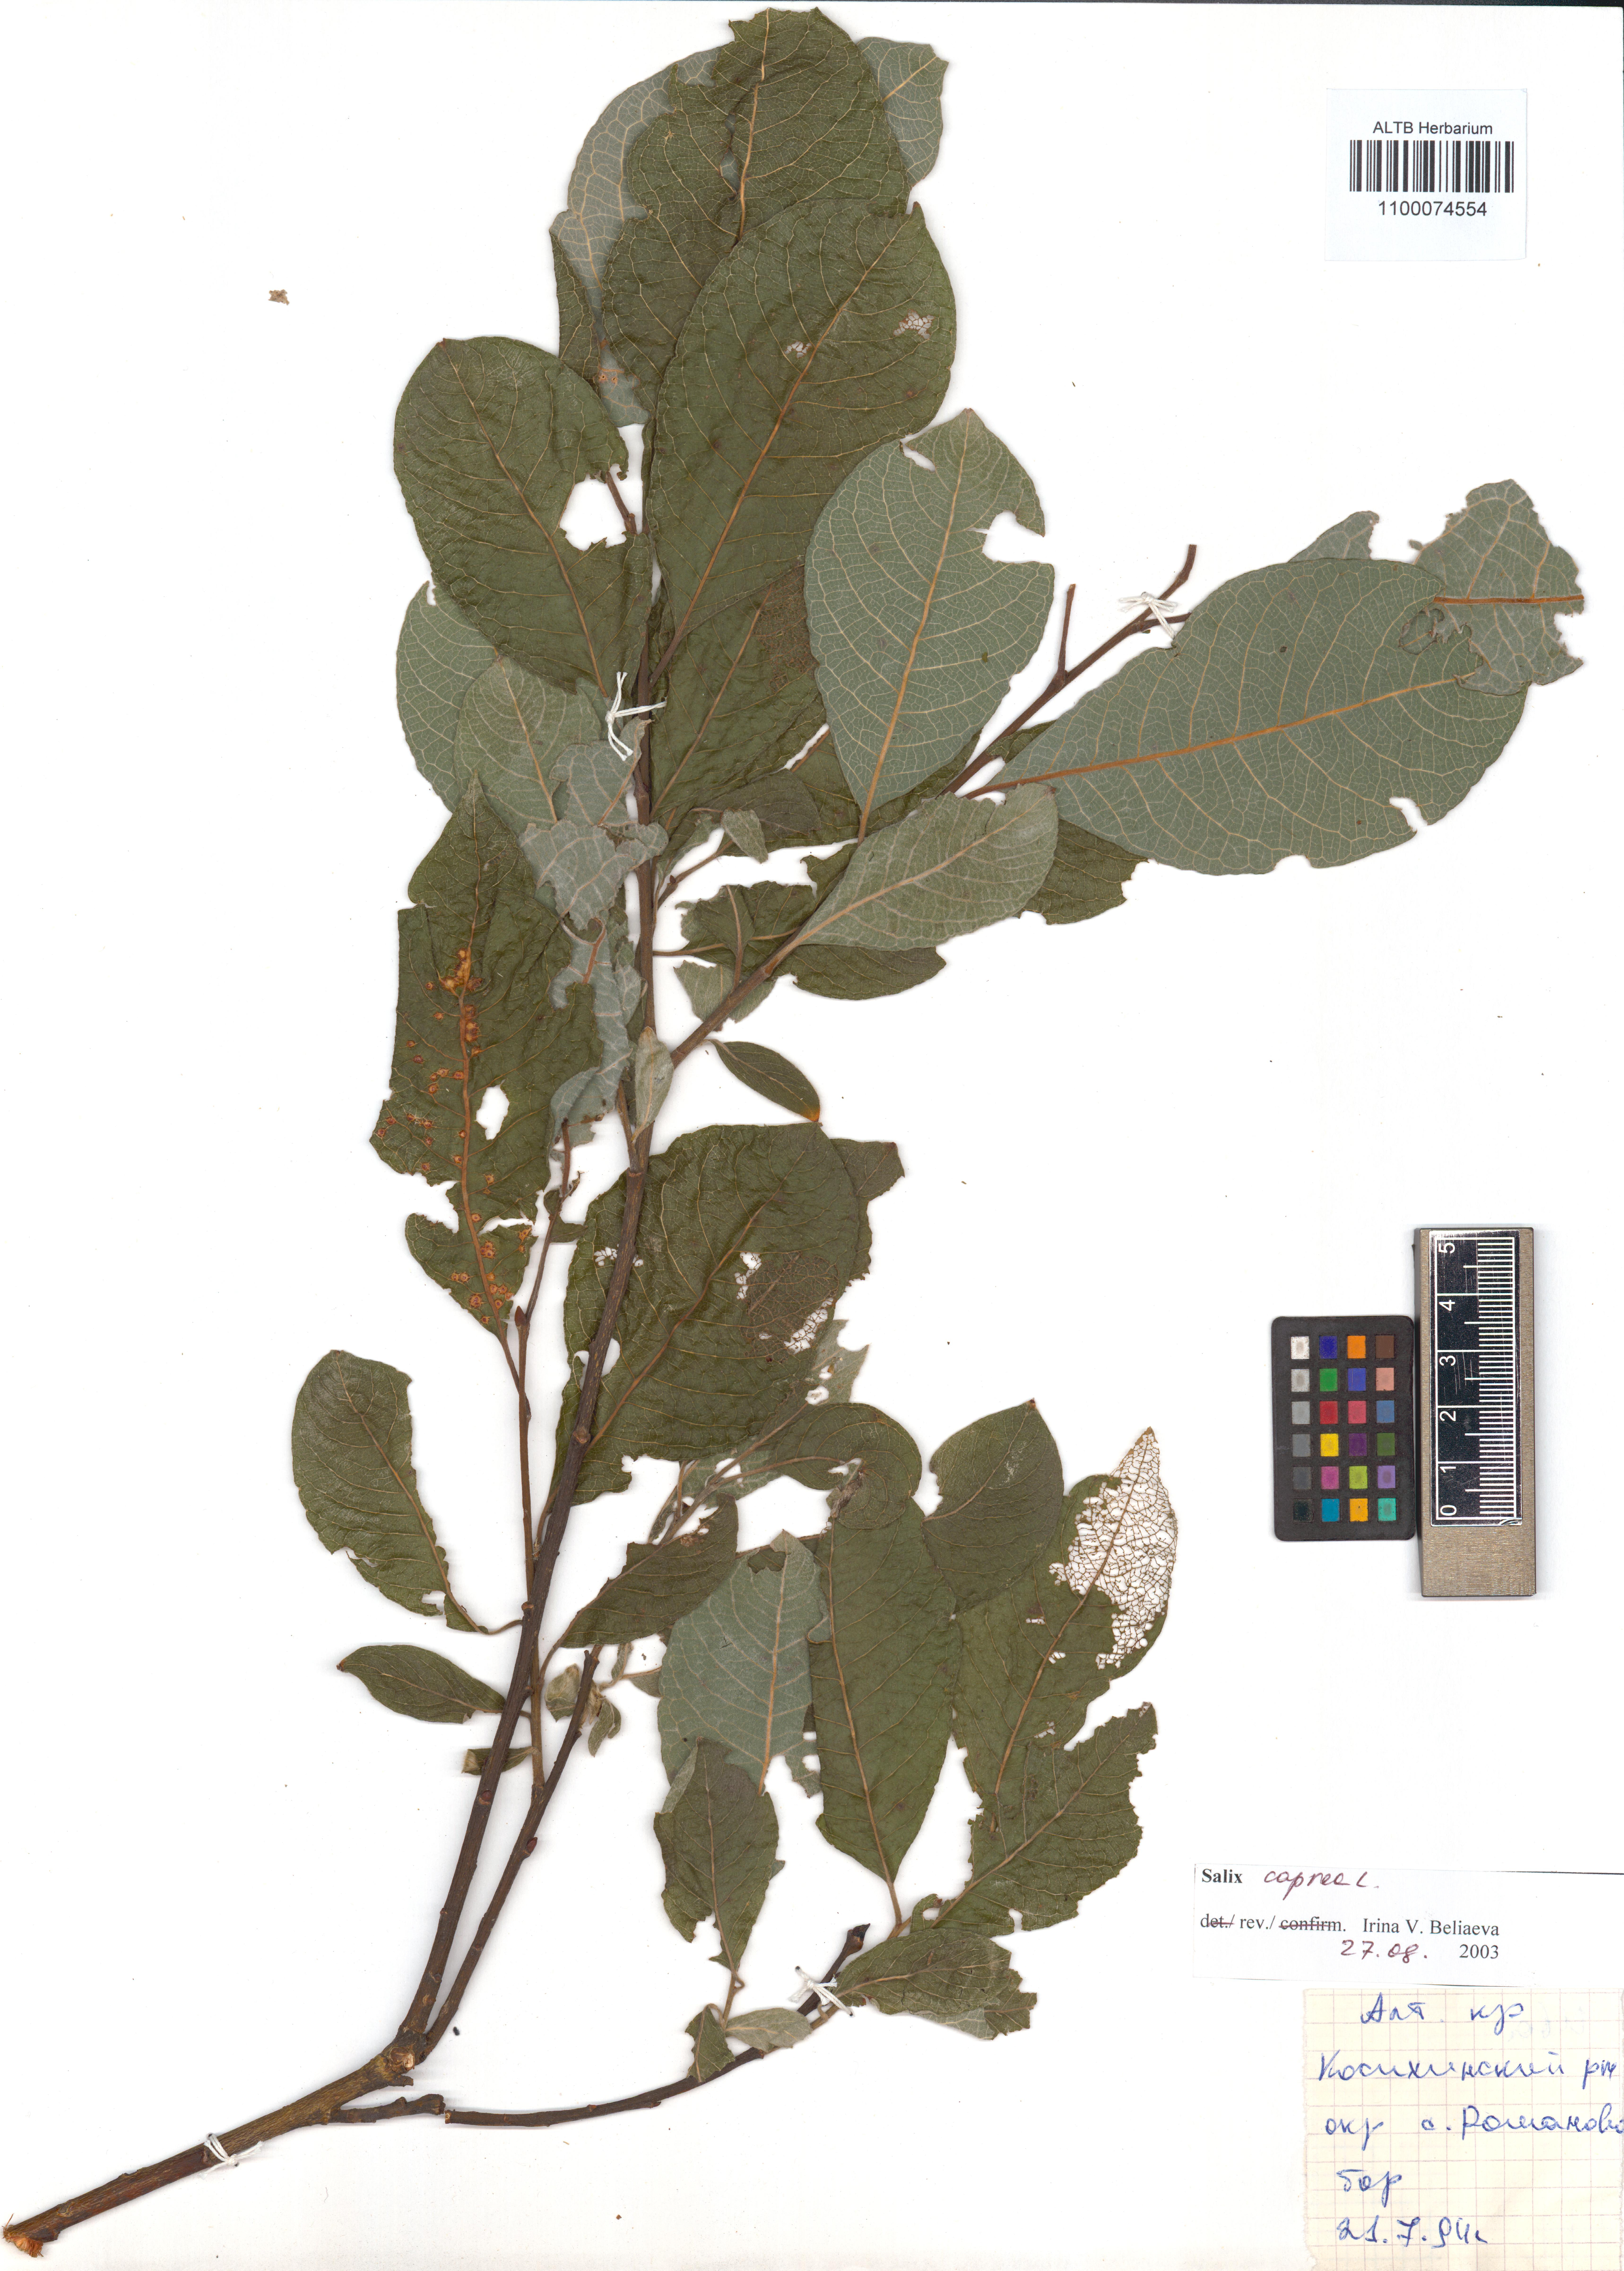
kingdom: Plantae
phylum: Tracheophyta
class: Magnoliopsida
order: Malpighiales
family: Salicaceae
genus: Salix
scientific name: Salix caprea
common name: Goat willow
